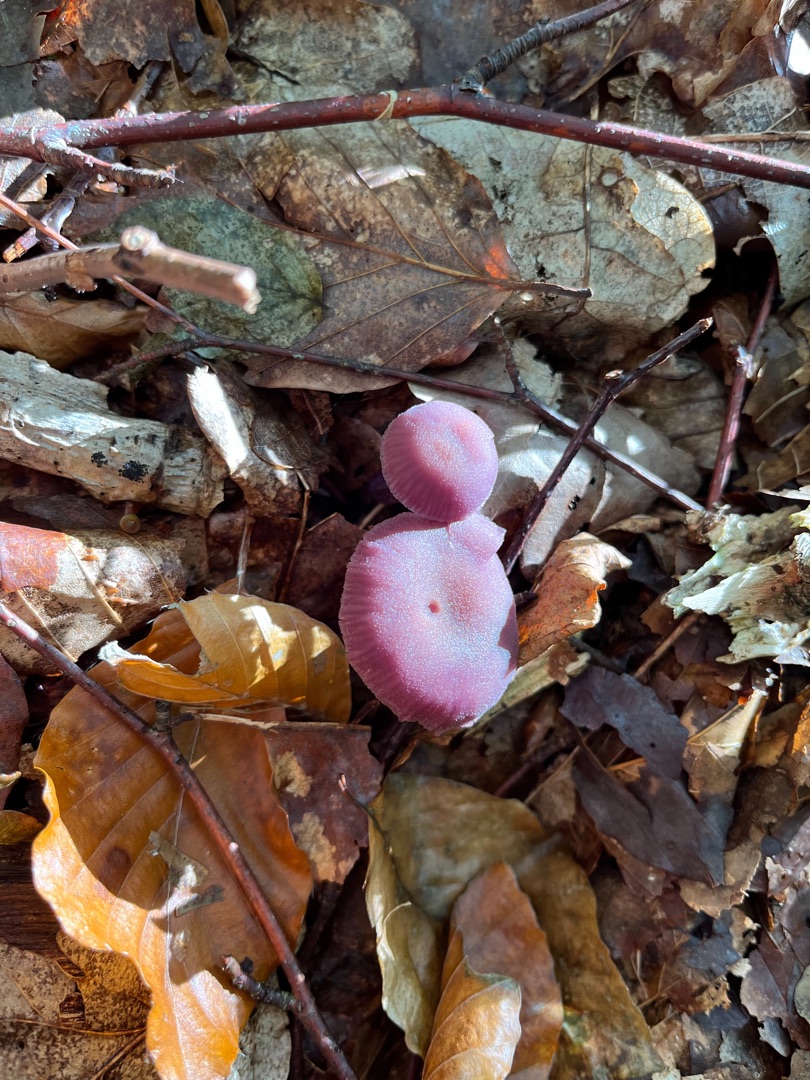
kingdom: Fungi
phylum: Basidiomycota
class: Agaricomycetes
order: Agaricales
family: Hydnangiaceae
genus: Laccaria
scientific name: Laccaria amethystina
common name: Violet ametysthat
